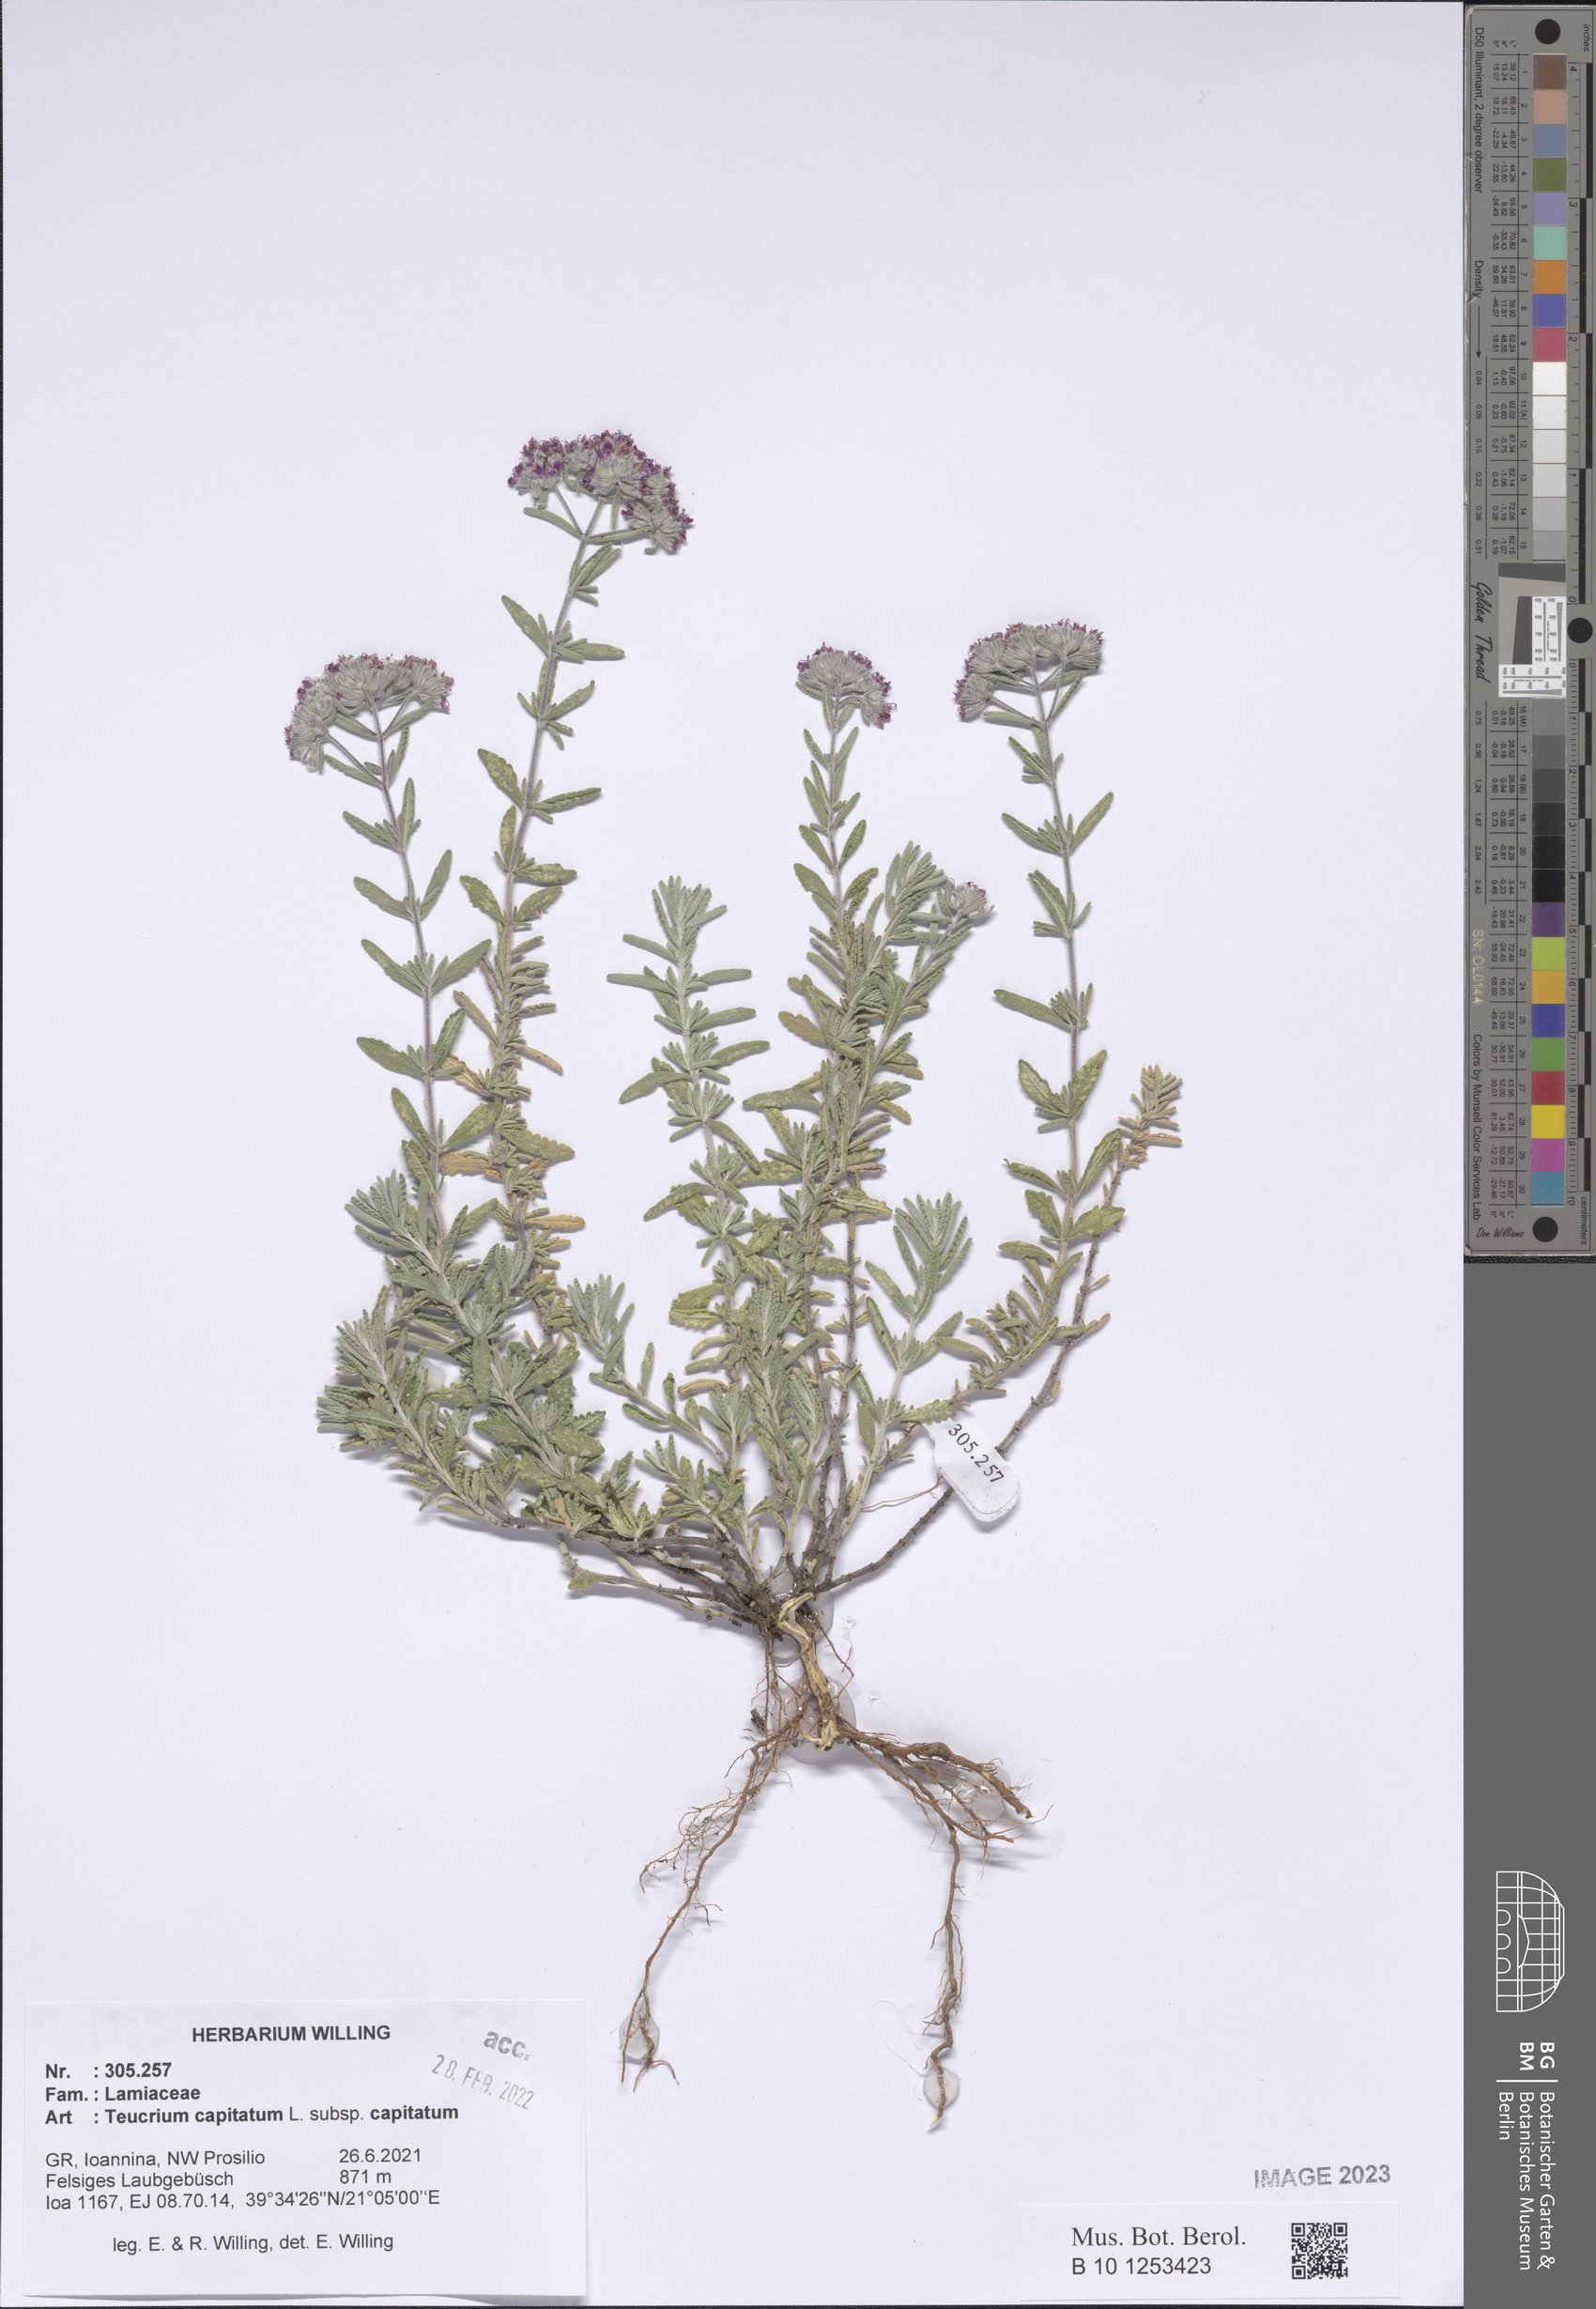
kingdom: Plantae
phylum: Tracheophyta
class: Magnoliopsida
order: Lamiales
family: Lamiaceae
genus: Teucrium
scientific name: Teucrium capitatum
